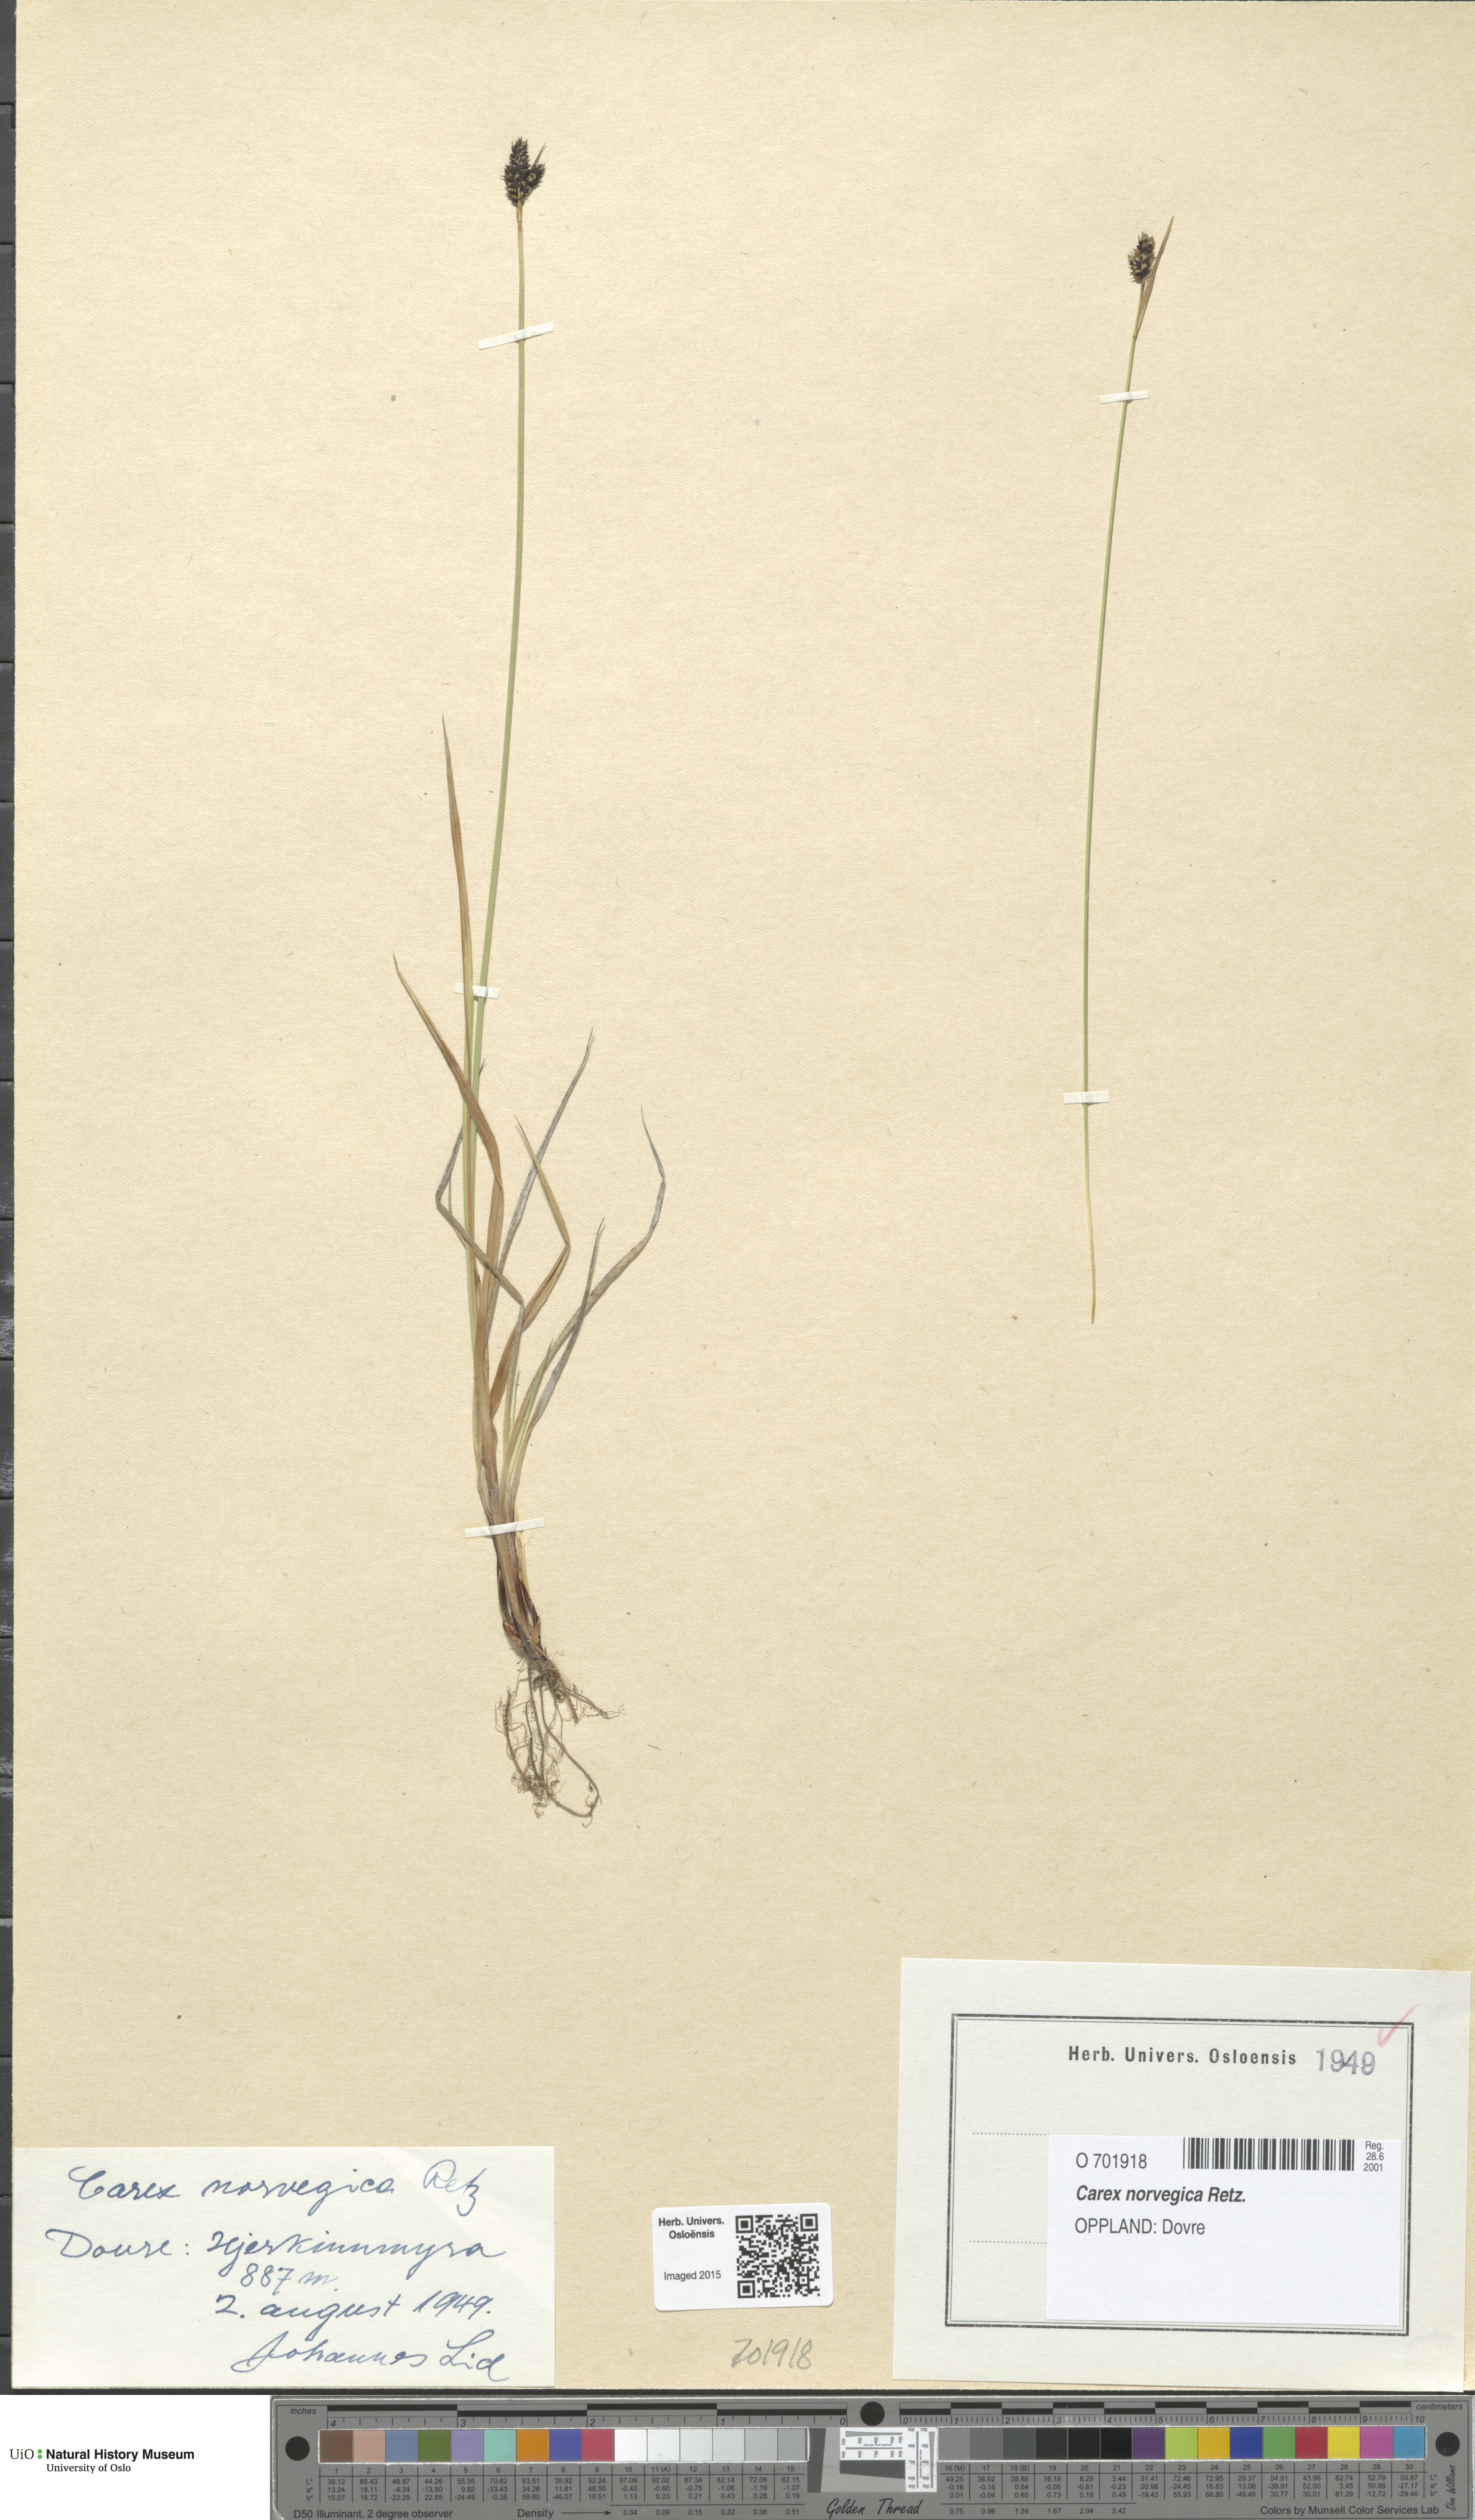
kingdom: Plantae
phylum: Tracheophyta
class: Liliopsida
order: Poales
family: Cyperaceae
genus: Carex
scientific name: Carex norvegica
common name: Close-headed alpine-sedge
